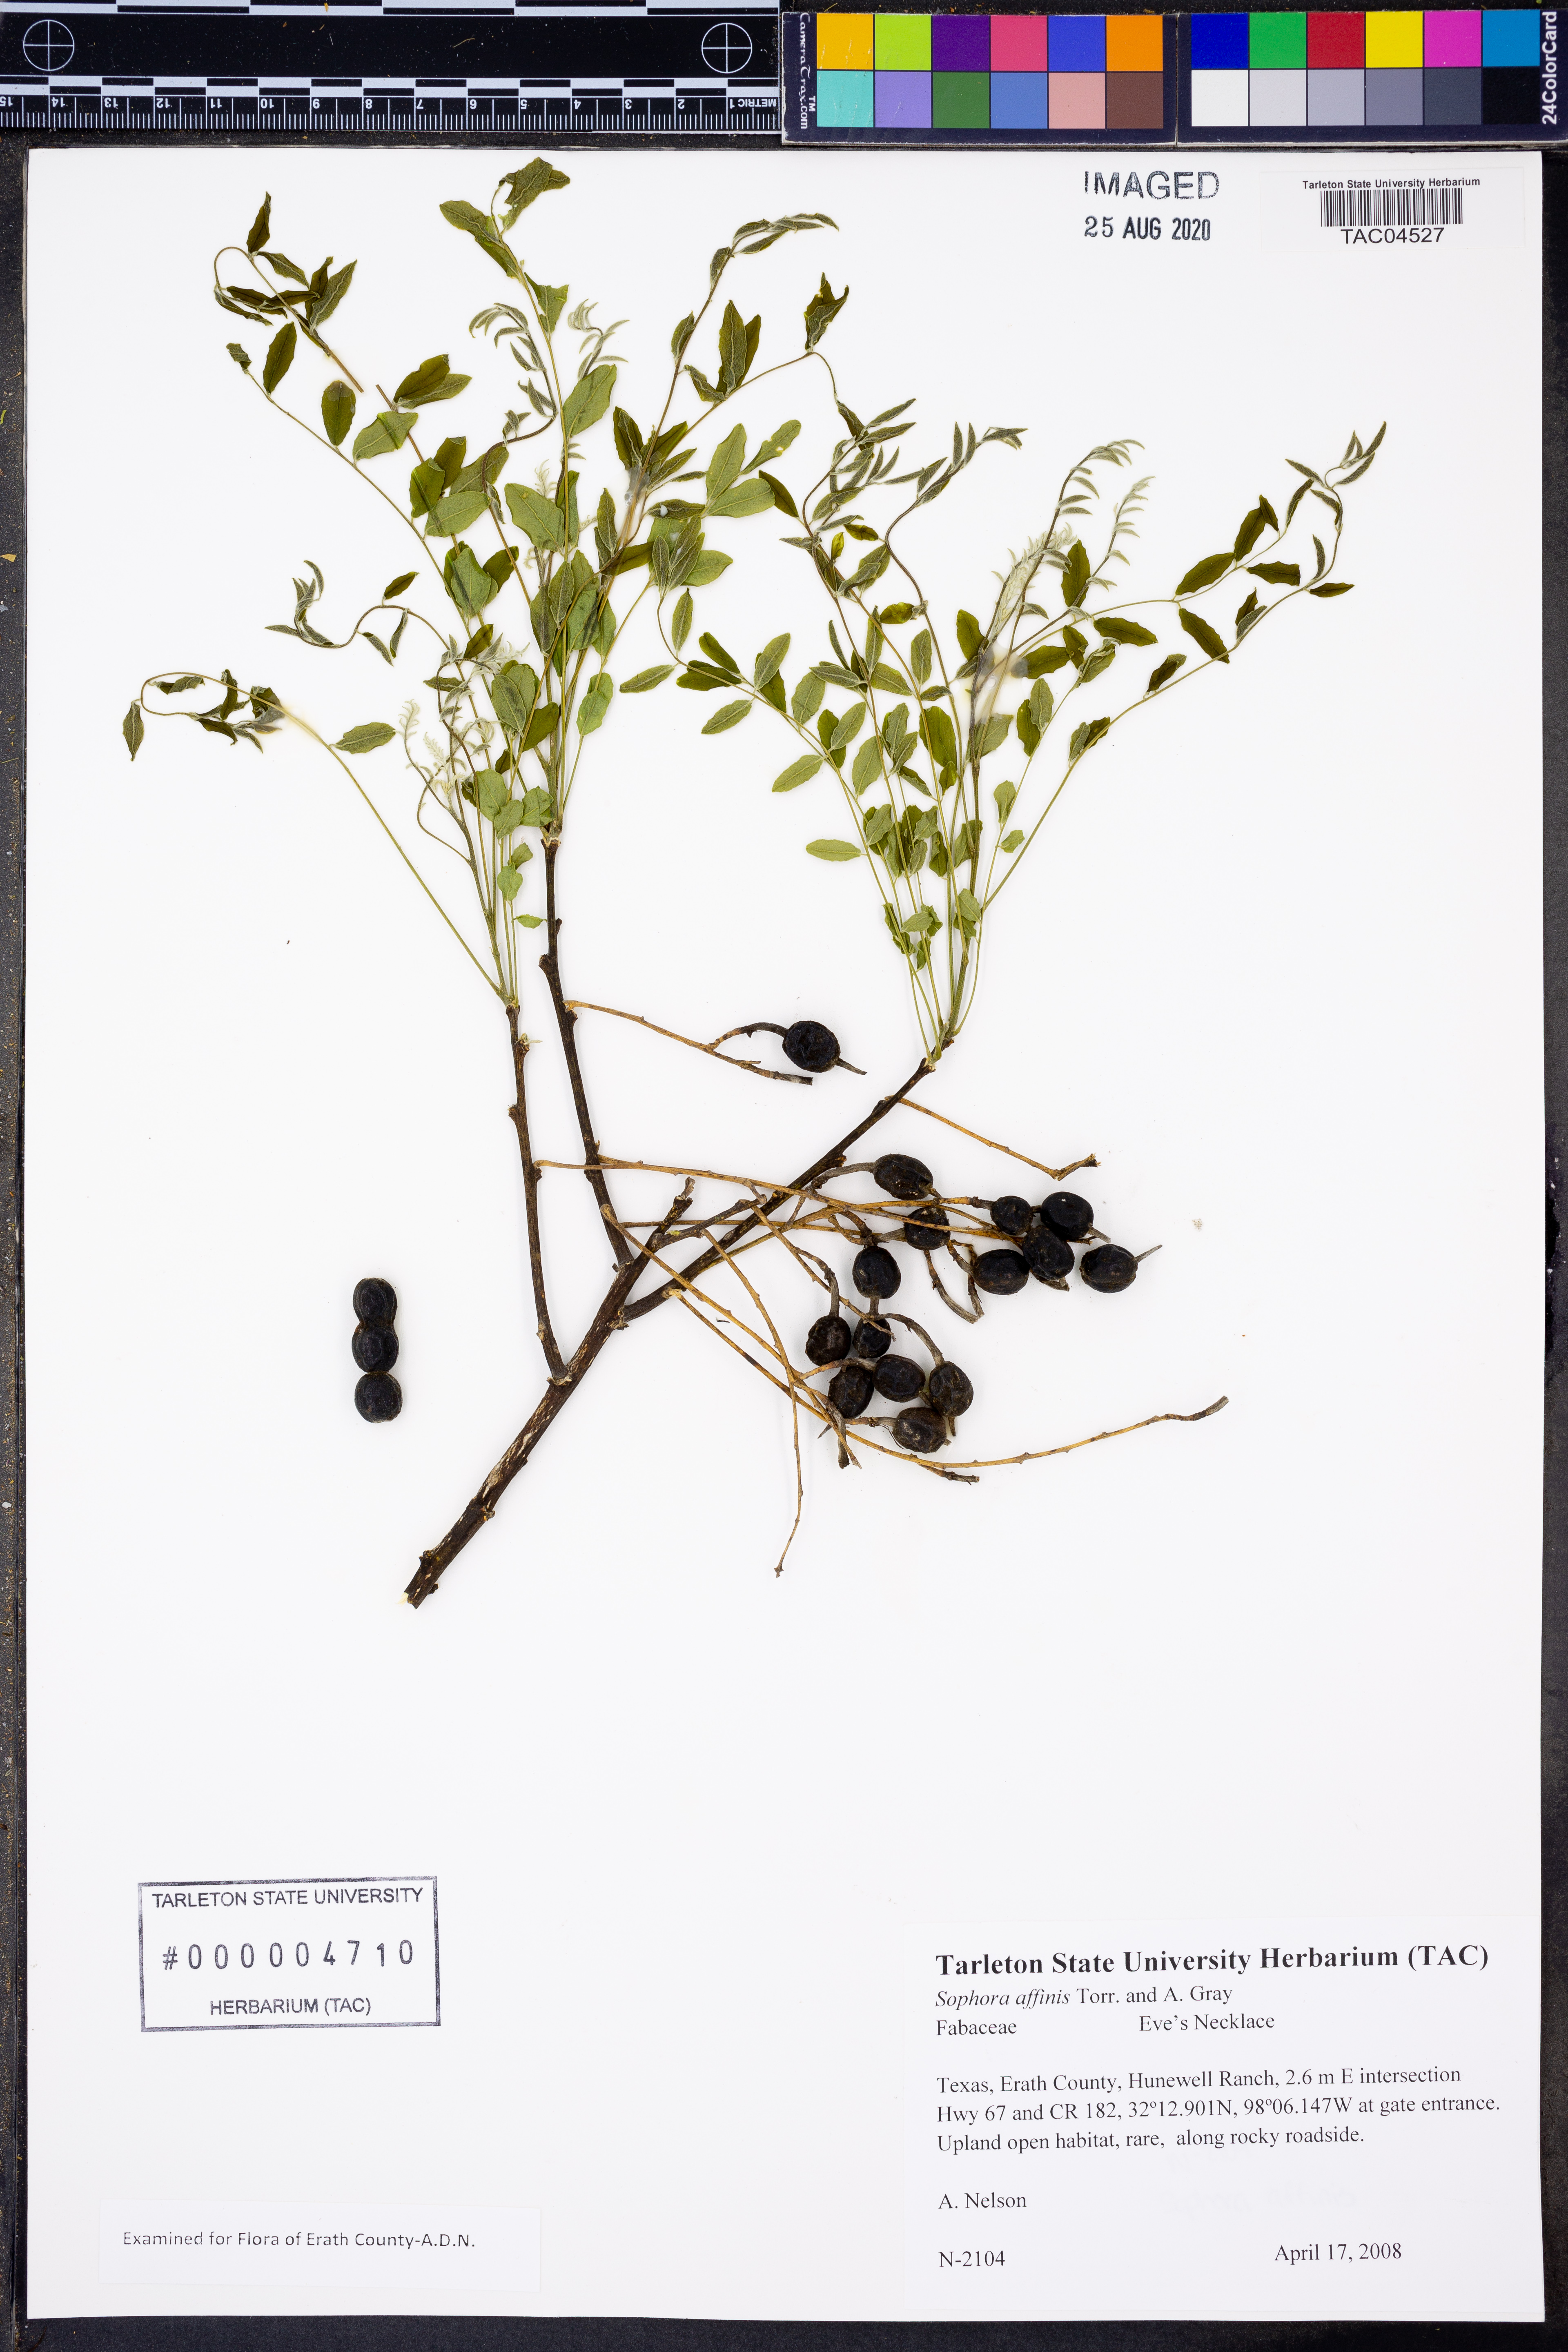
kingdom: Plantae
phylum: Tracheophyta
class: Magnoliopsida
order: Fabales
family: Fabaceae
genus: Styphnolobium
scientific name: Styphnolobium affine
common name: Texas sophora
